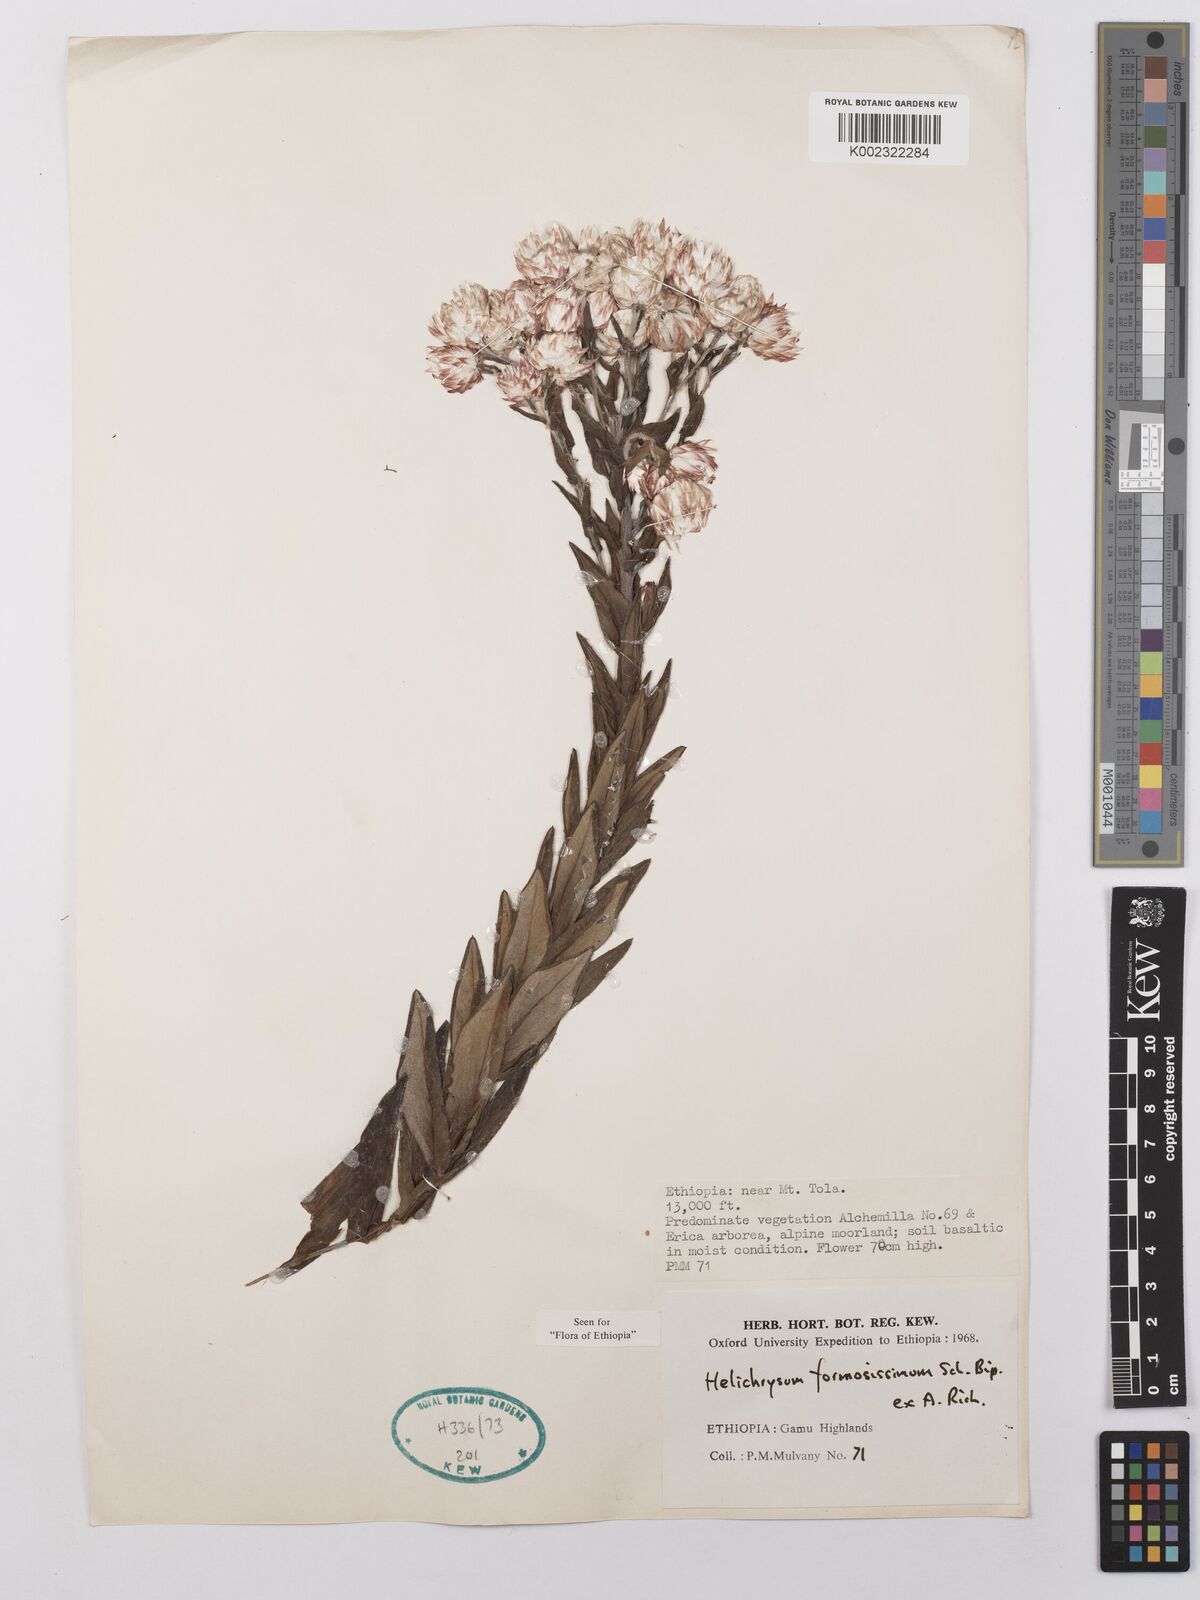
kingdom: Plantae
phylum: Tracheophyta
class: Magnoliopsida
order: Asterales
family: Asteraceae
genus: Helichrysum
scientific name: Helichrysum formosissimum
